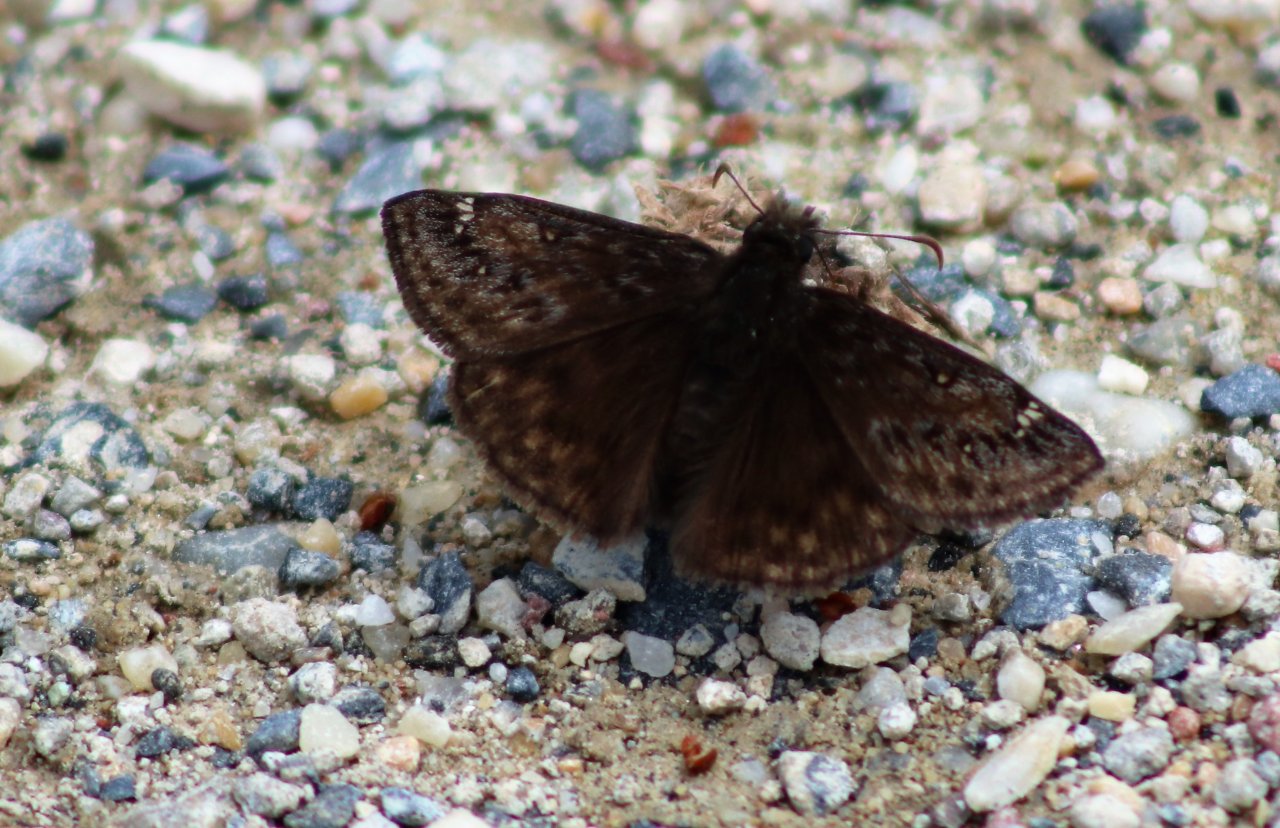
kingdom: Animalia
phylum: Arthropoda
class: Insecta
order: Lepidoptera
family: Hesperiidae
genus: Gesta
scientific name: Gesta
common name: Horace's Duskywing
